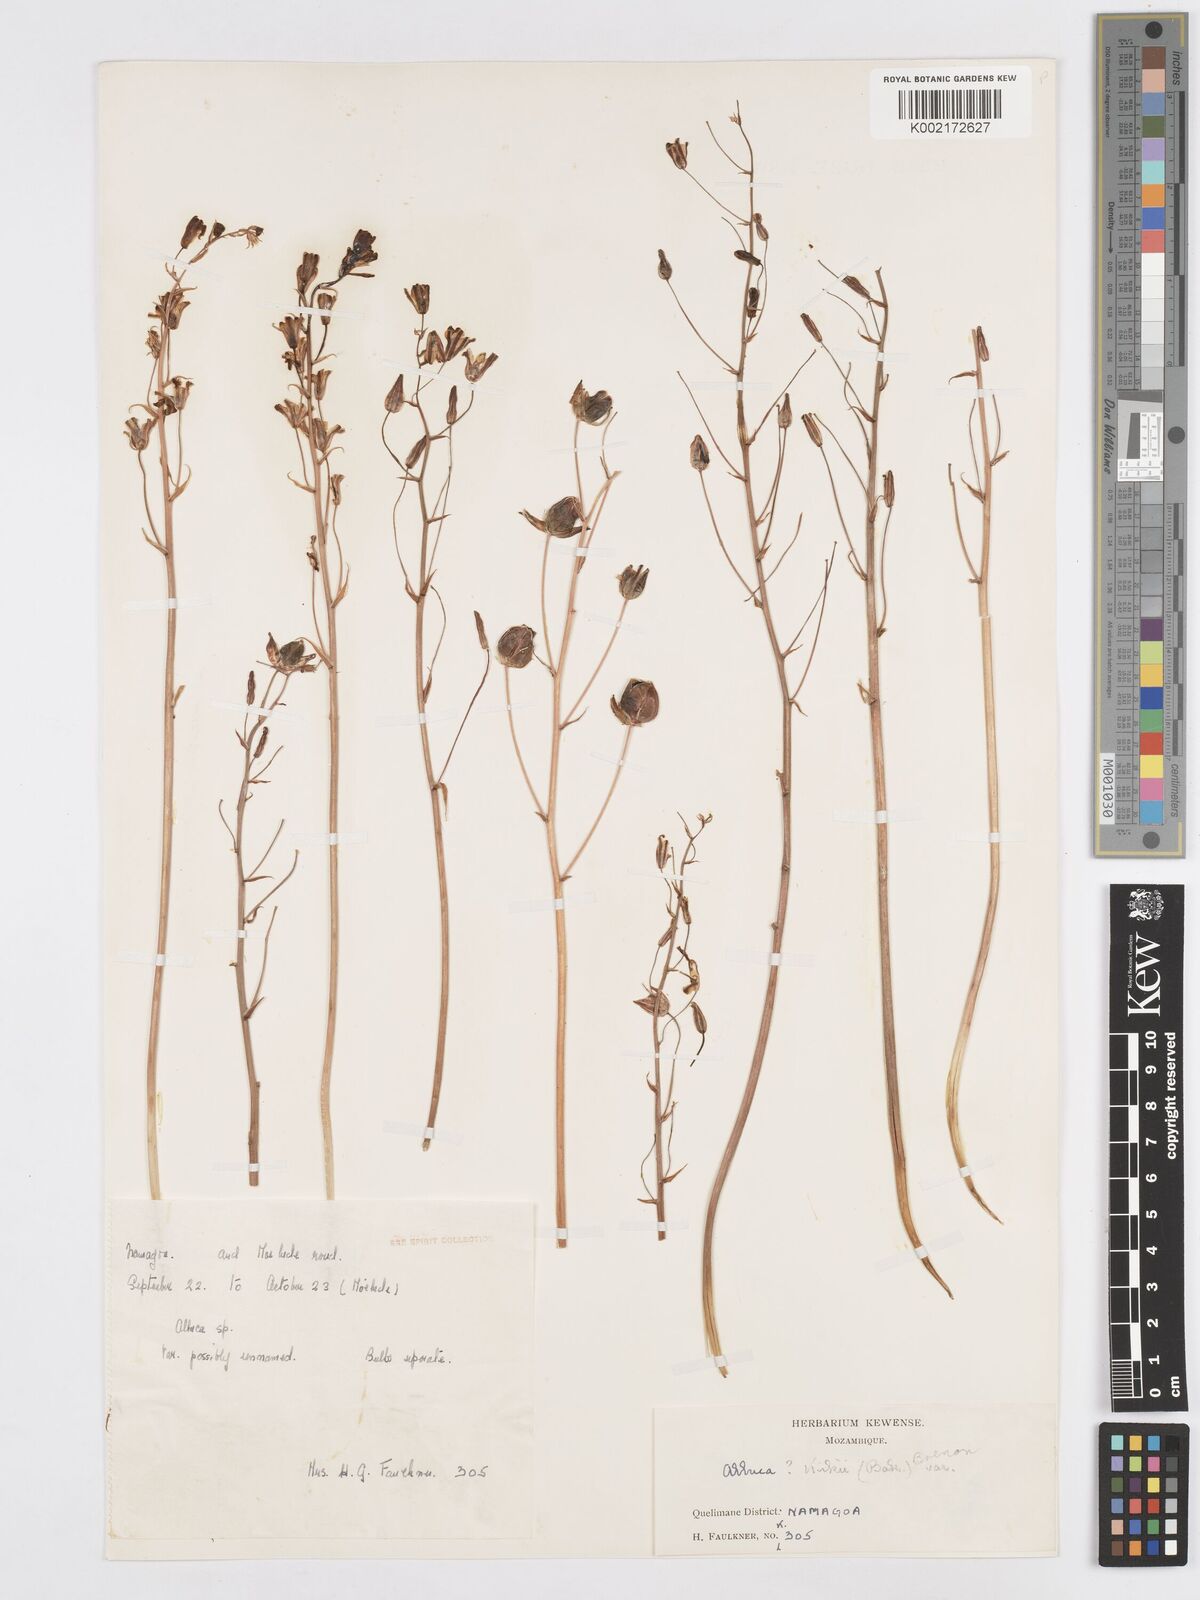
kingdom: Plantae
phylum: Tracheophyta
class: Liliopsida
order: Asparagales
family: Asparagaceae
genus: Albuca
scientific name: Albuca kirkii
